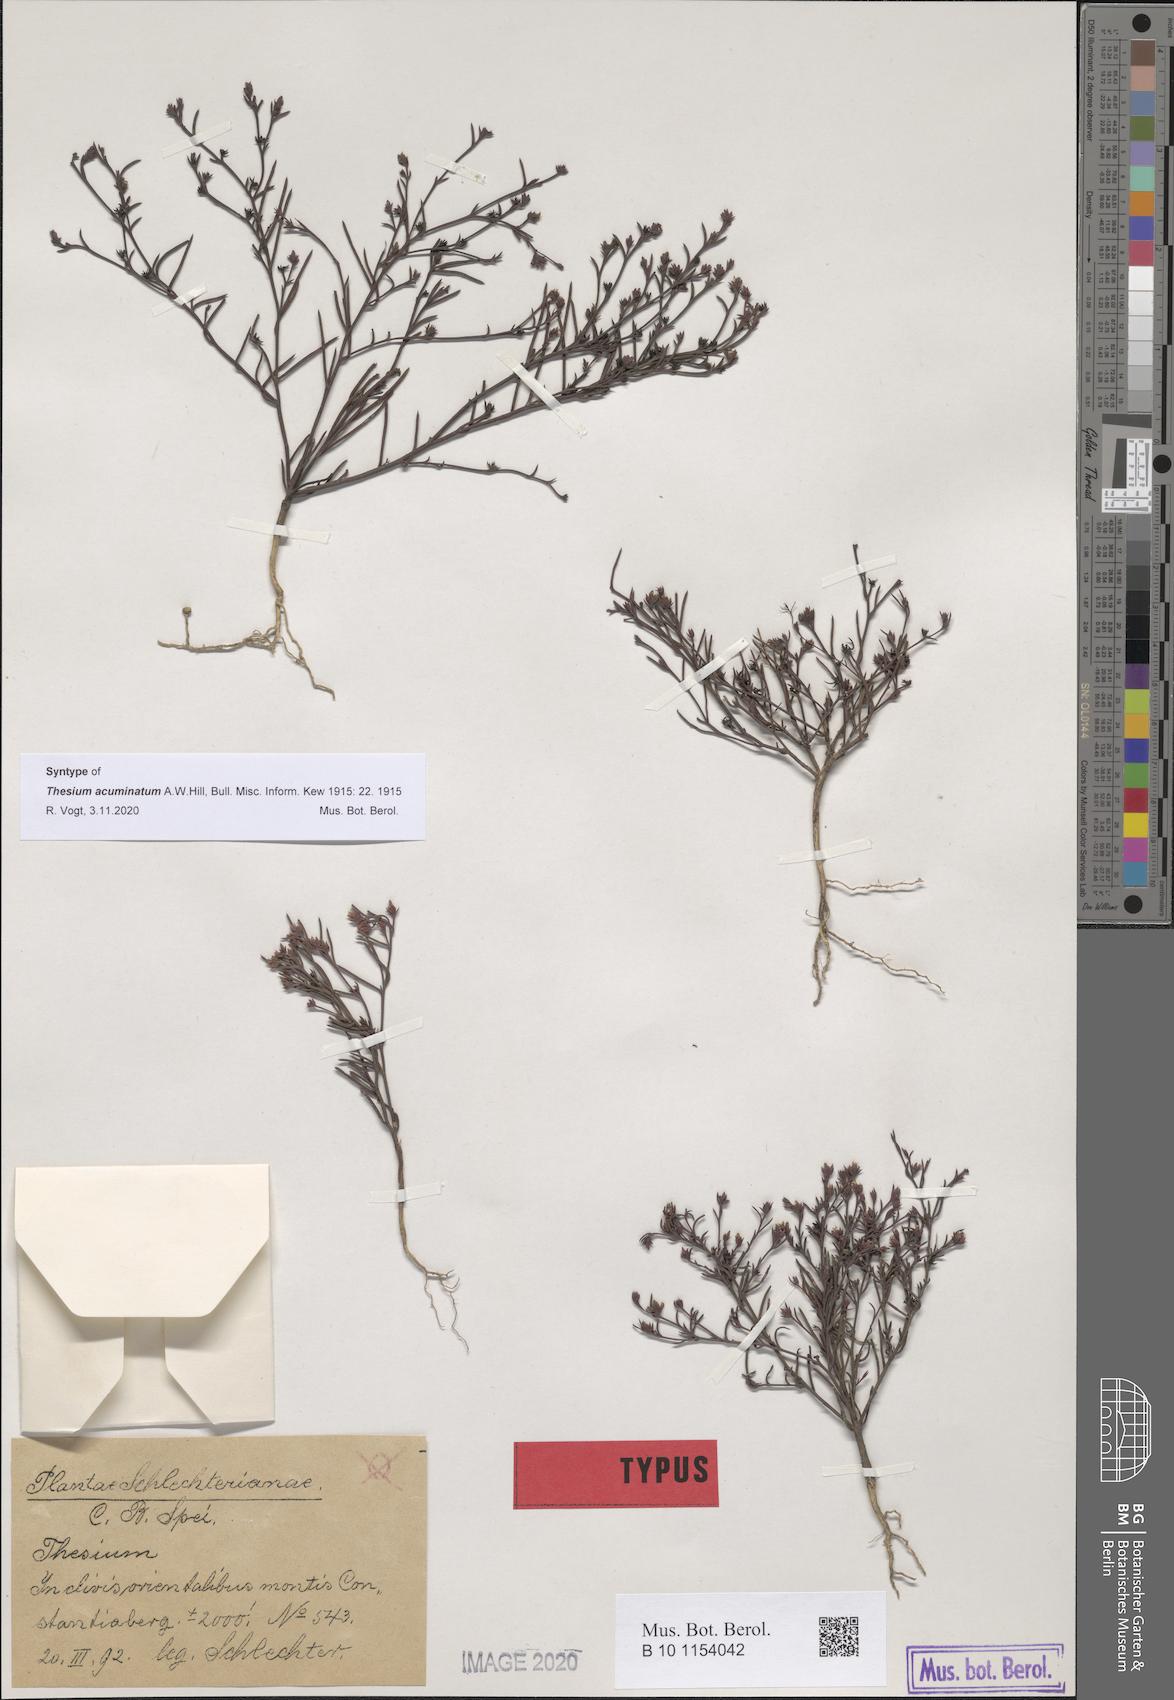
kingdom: Plantae
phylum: Tracheophyta
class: Magnoliopsida
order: Santalales
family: Thesiaceae
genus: Thesium
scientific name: Thesium acuminatum
